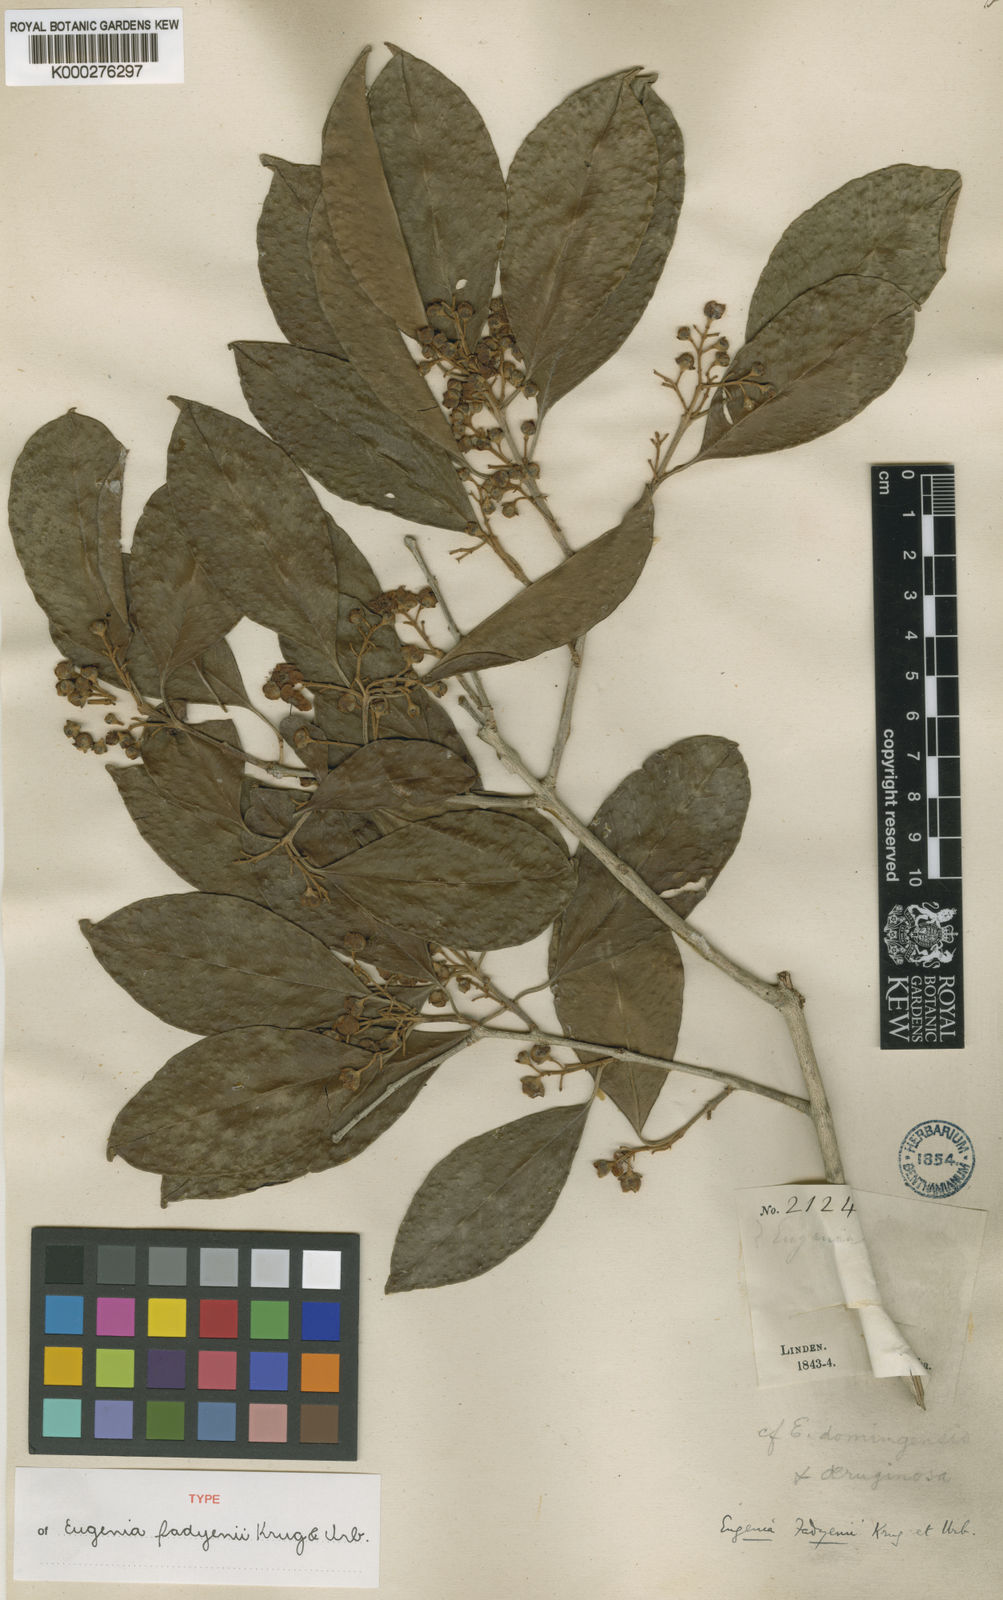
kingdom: Plantae
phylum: Tracheophyta
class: Magnoliopsida
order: Myrtales
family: Myrtaceae
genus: Eugenia
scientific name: Eugenia aeruginea
